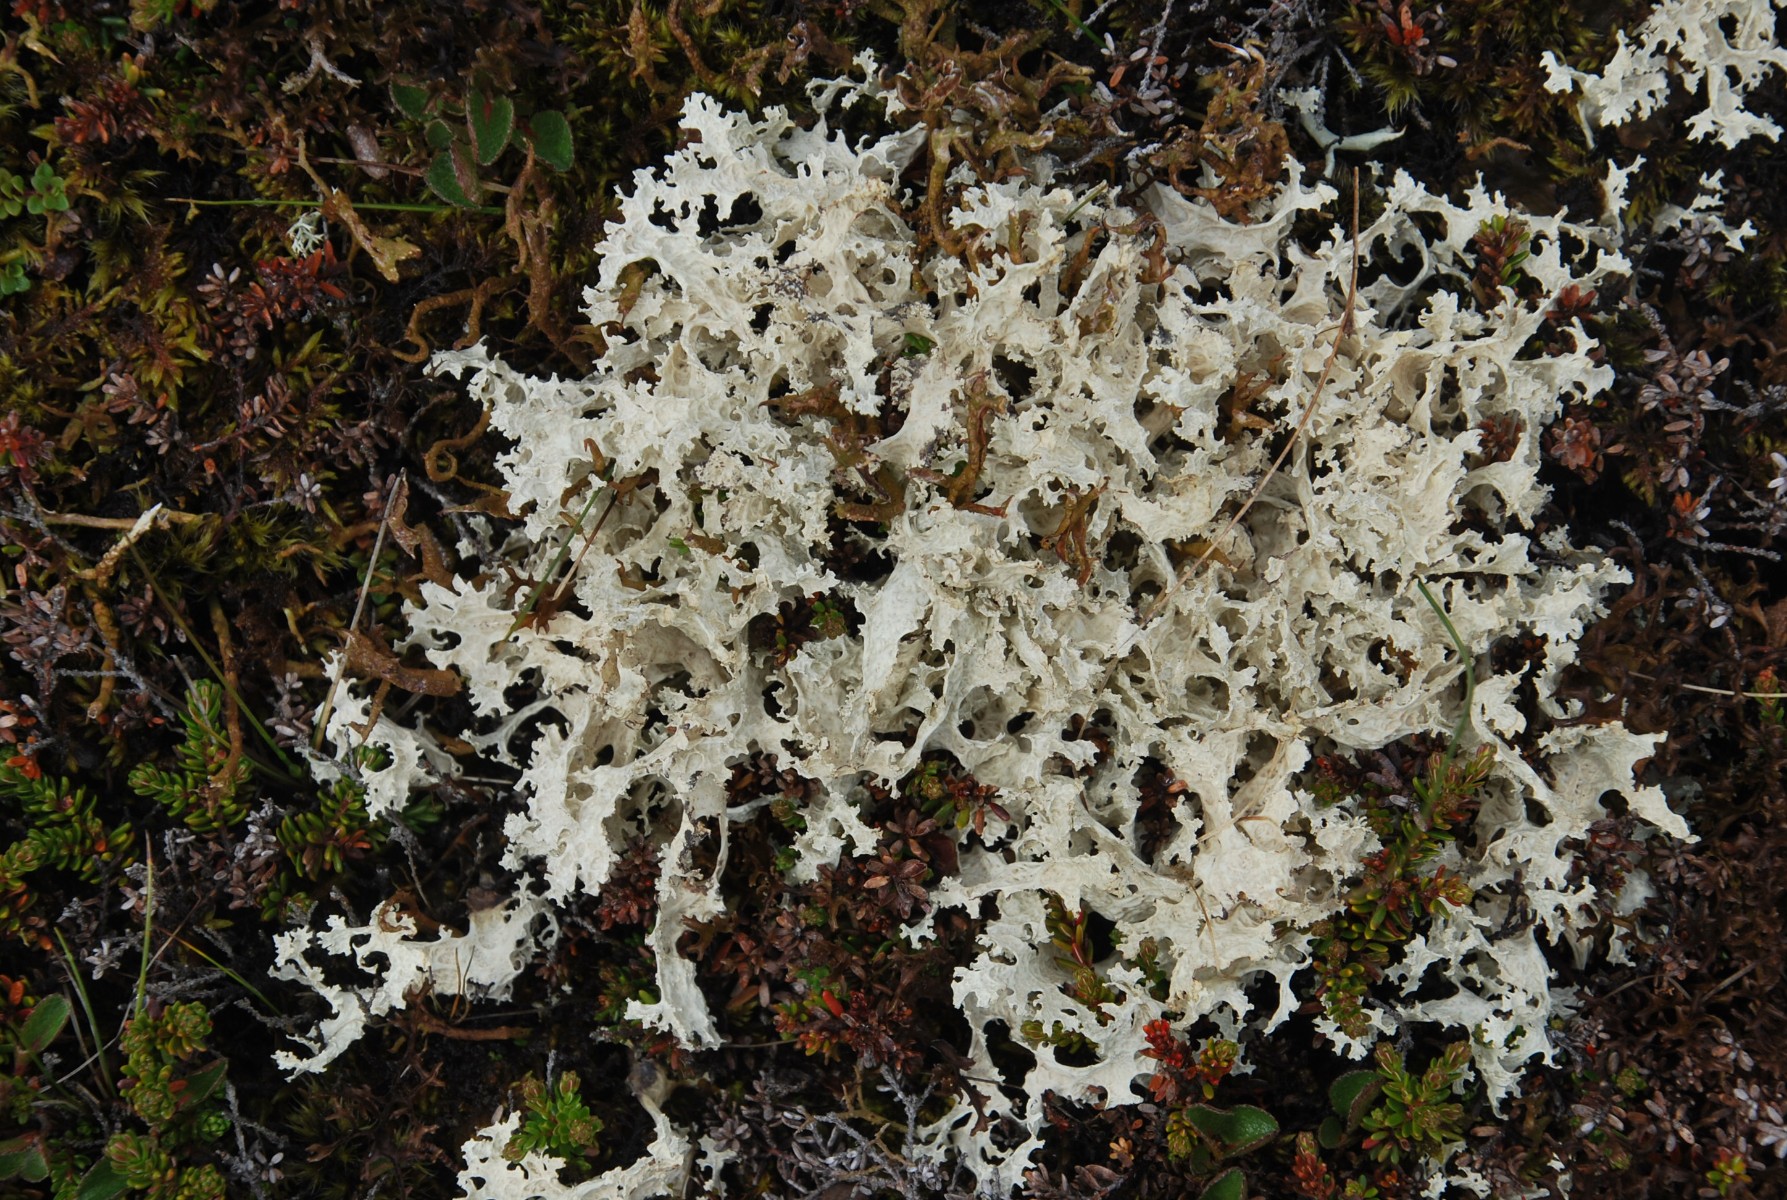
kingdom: Fungi
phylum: Ascomycota
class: Lecanoromycetes
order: Lecanorales
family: Parmeliaceae
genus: Nephromopsis
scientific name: Nephromopsis nivalis
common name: sne-kruslav
